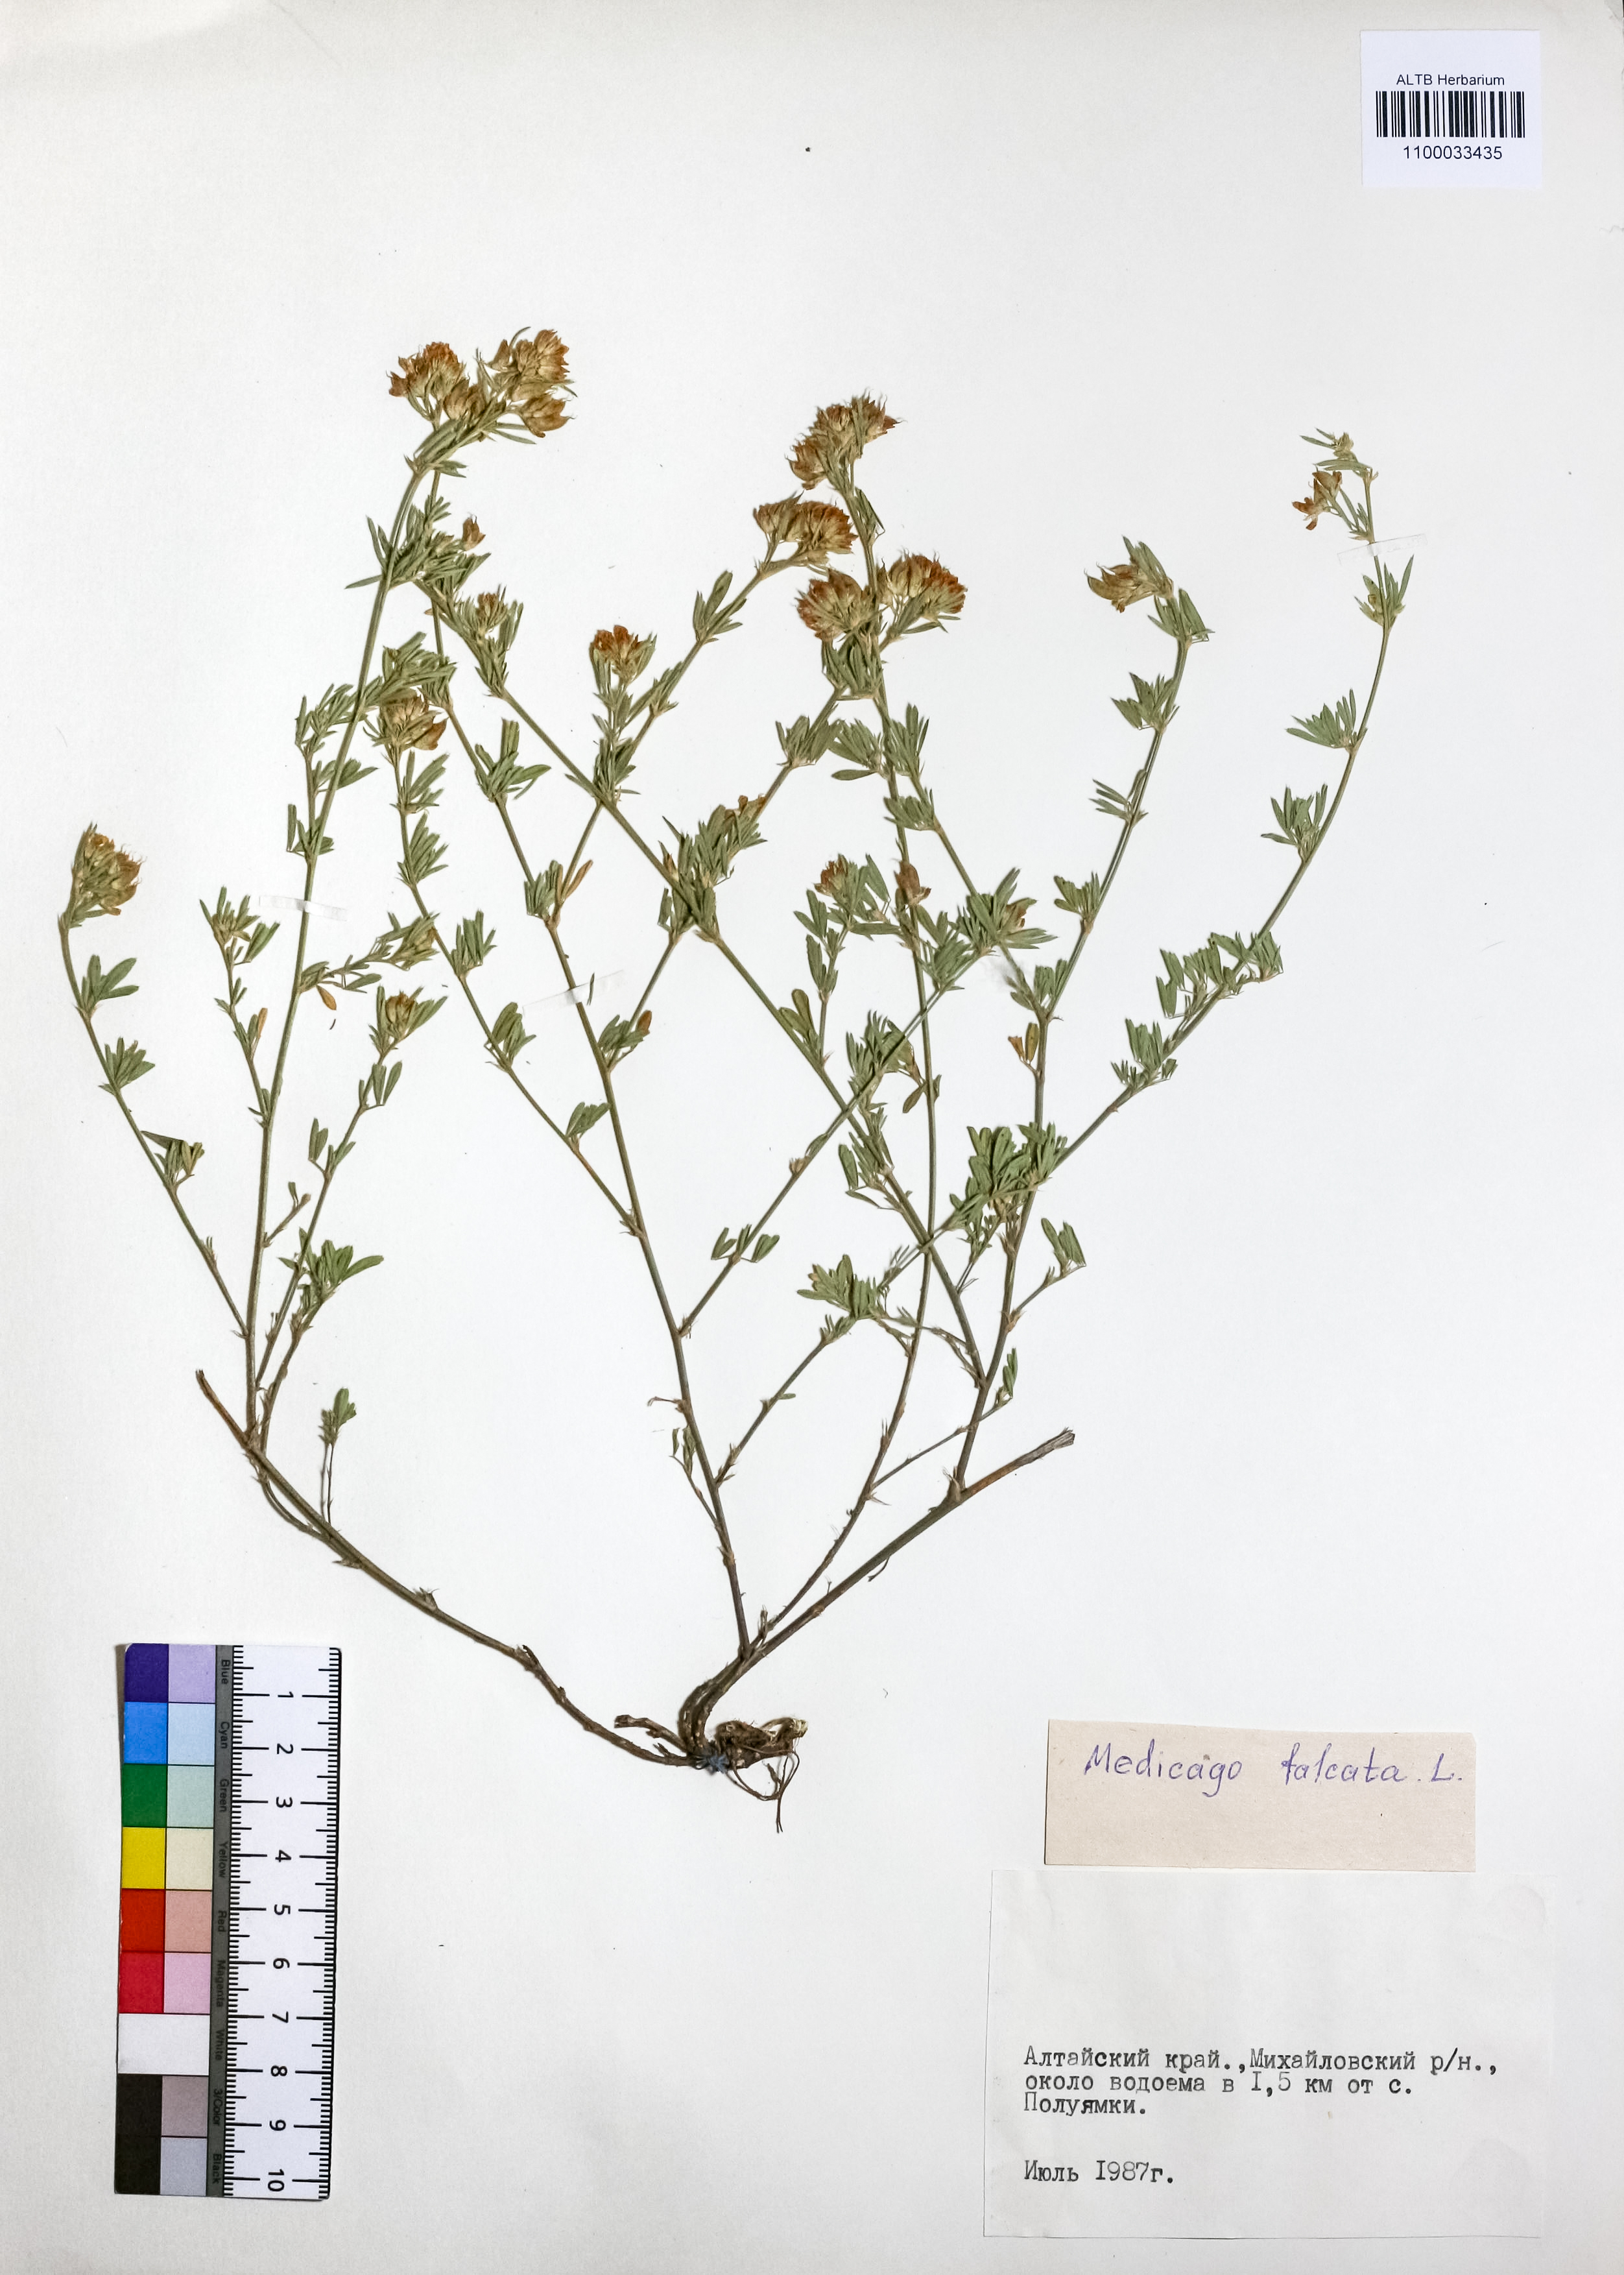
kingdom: Plantae
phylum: Tracheophyta
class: Magnoliopsida
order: Fabales
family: Fabaceae
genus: Medicago
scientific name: Medicago falcata
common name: Sickle medick
